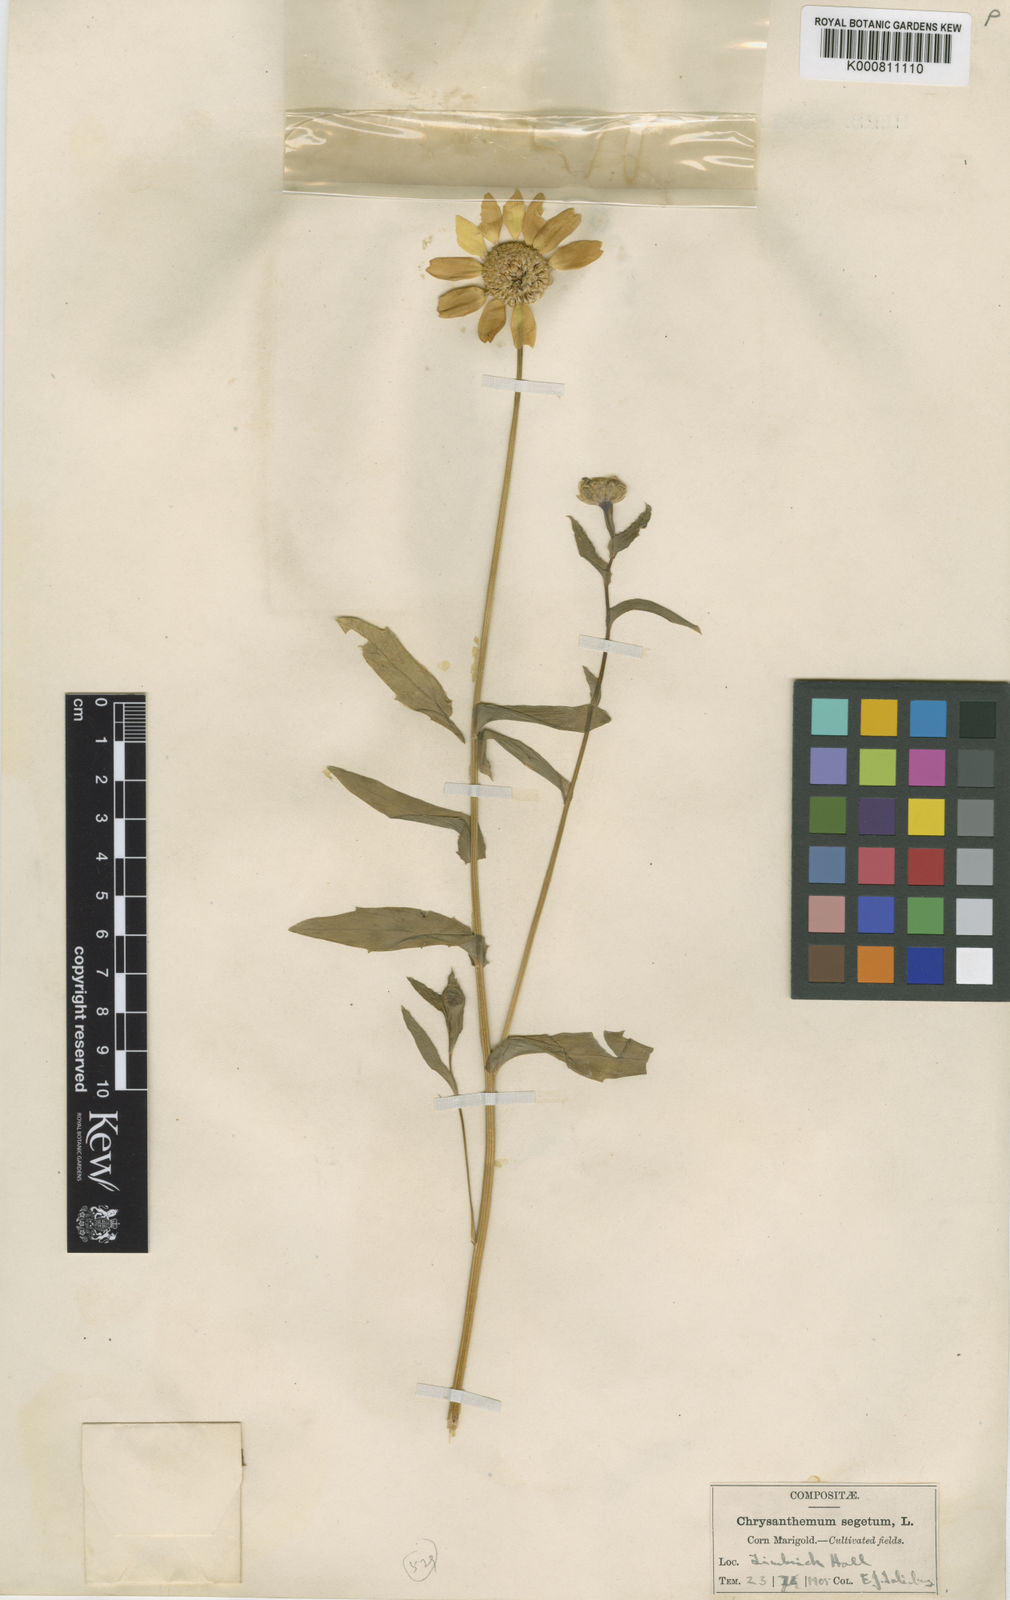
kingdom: Plantae
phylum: Tracheophyta
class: Magnoliopsida
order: Asterales
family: Asteraceae
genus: Glebionis
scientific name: Glebionis
